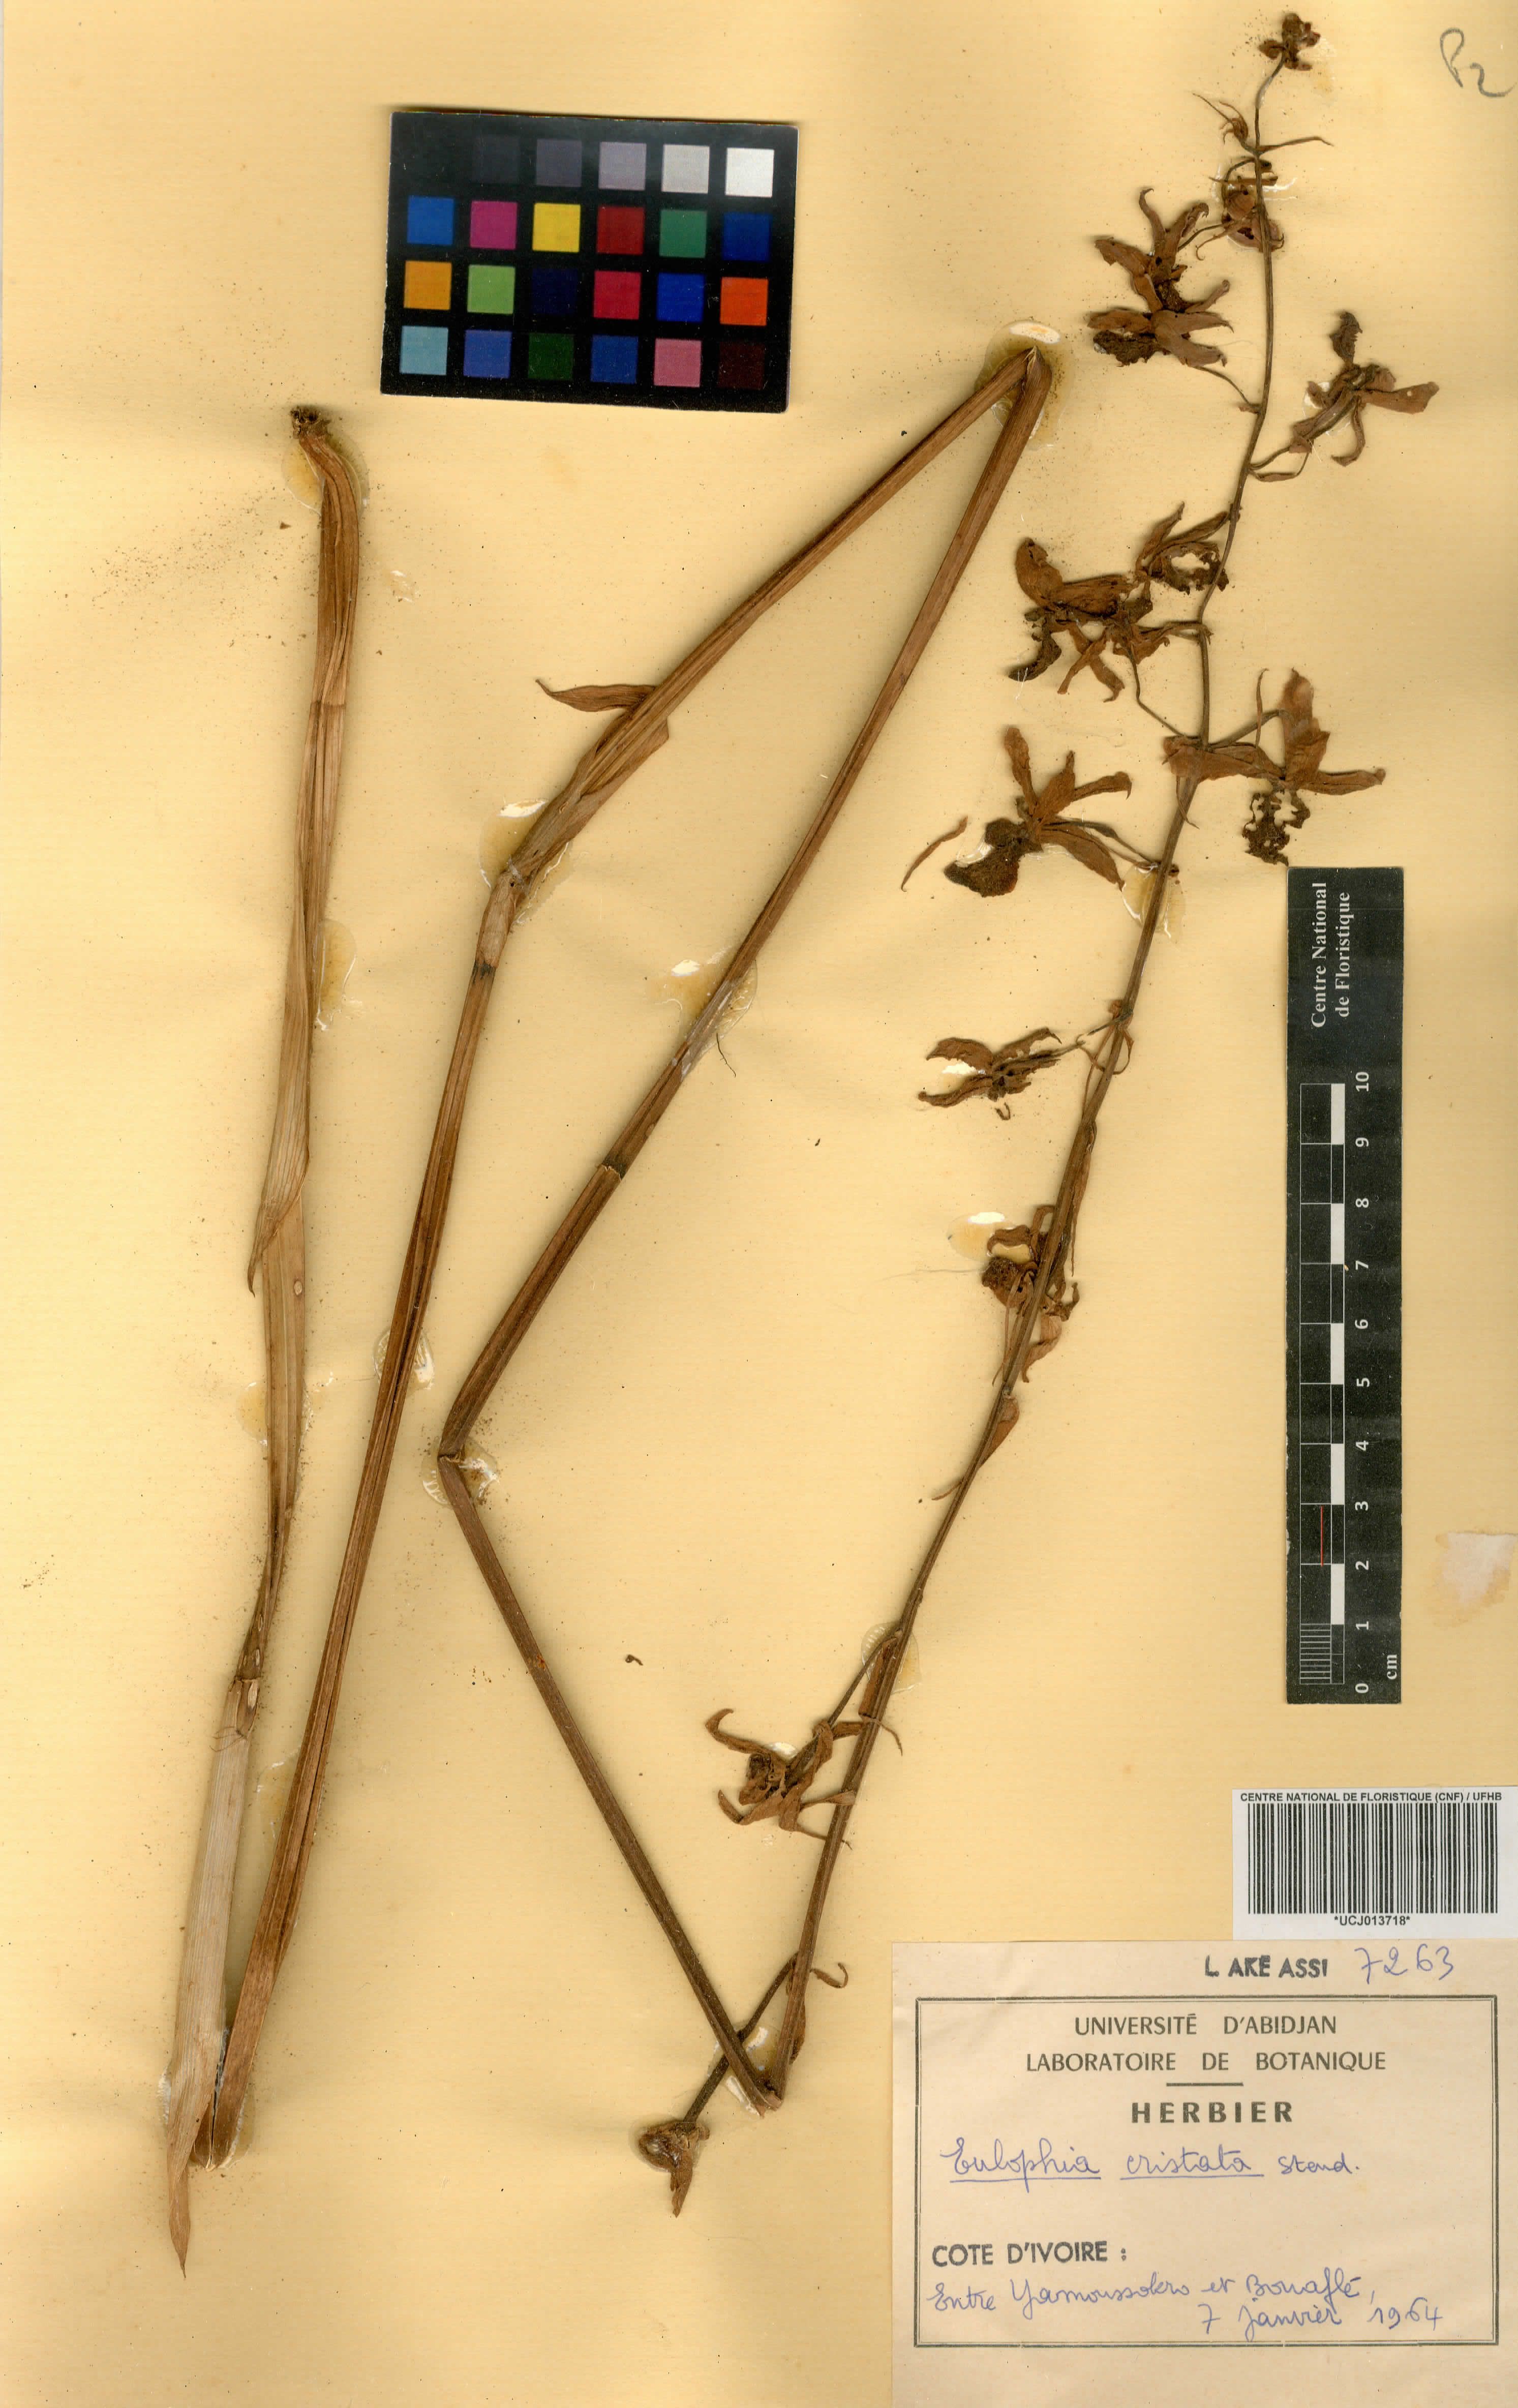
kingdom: Plantae
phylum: Tracheophyta
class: Liliopsida
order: Asparagales
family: Orchidaceae
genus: Eulophia
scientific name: Eulophia cristata
